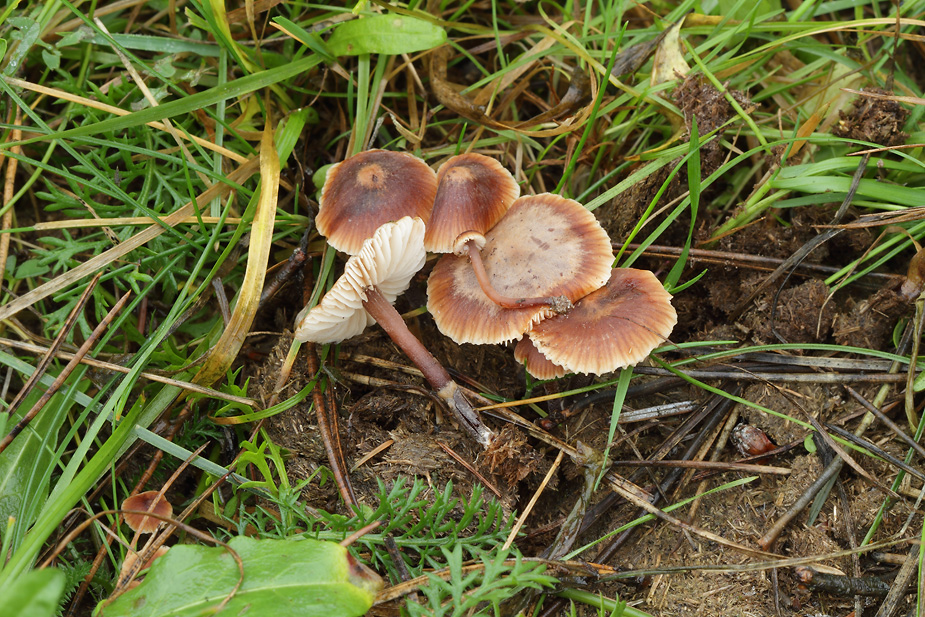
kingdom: Fungi
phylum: Basidiomycota
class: Agaricomycetes
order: Agaricales
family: Macrocystidiaceae
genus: Macrocystidia
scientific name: Macrocystidia cucumis
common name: Cucumber cap
